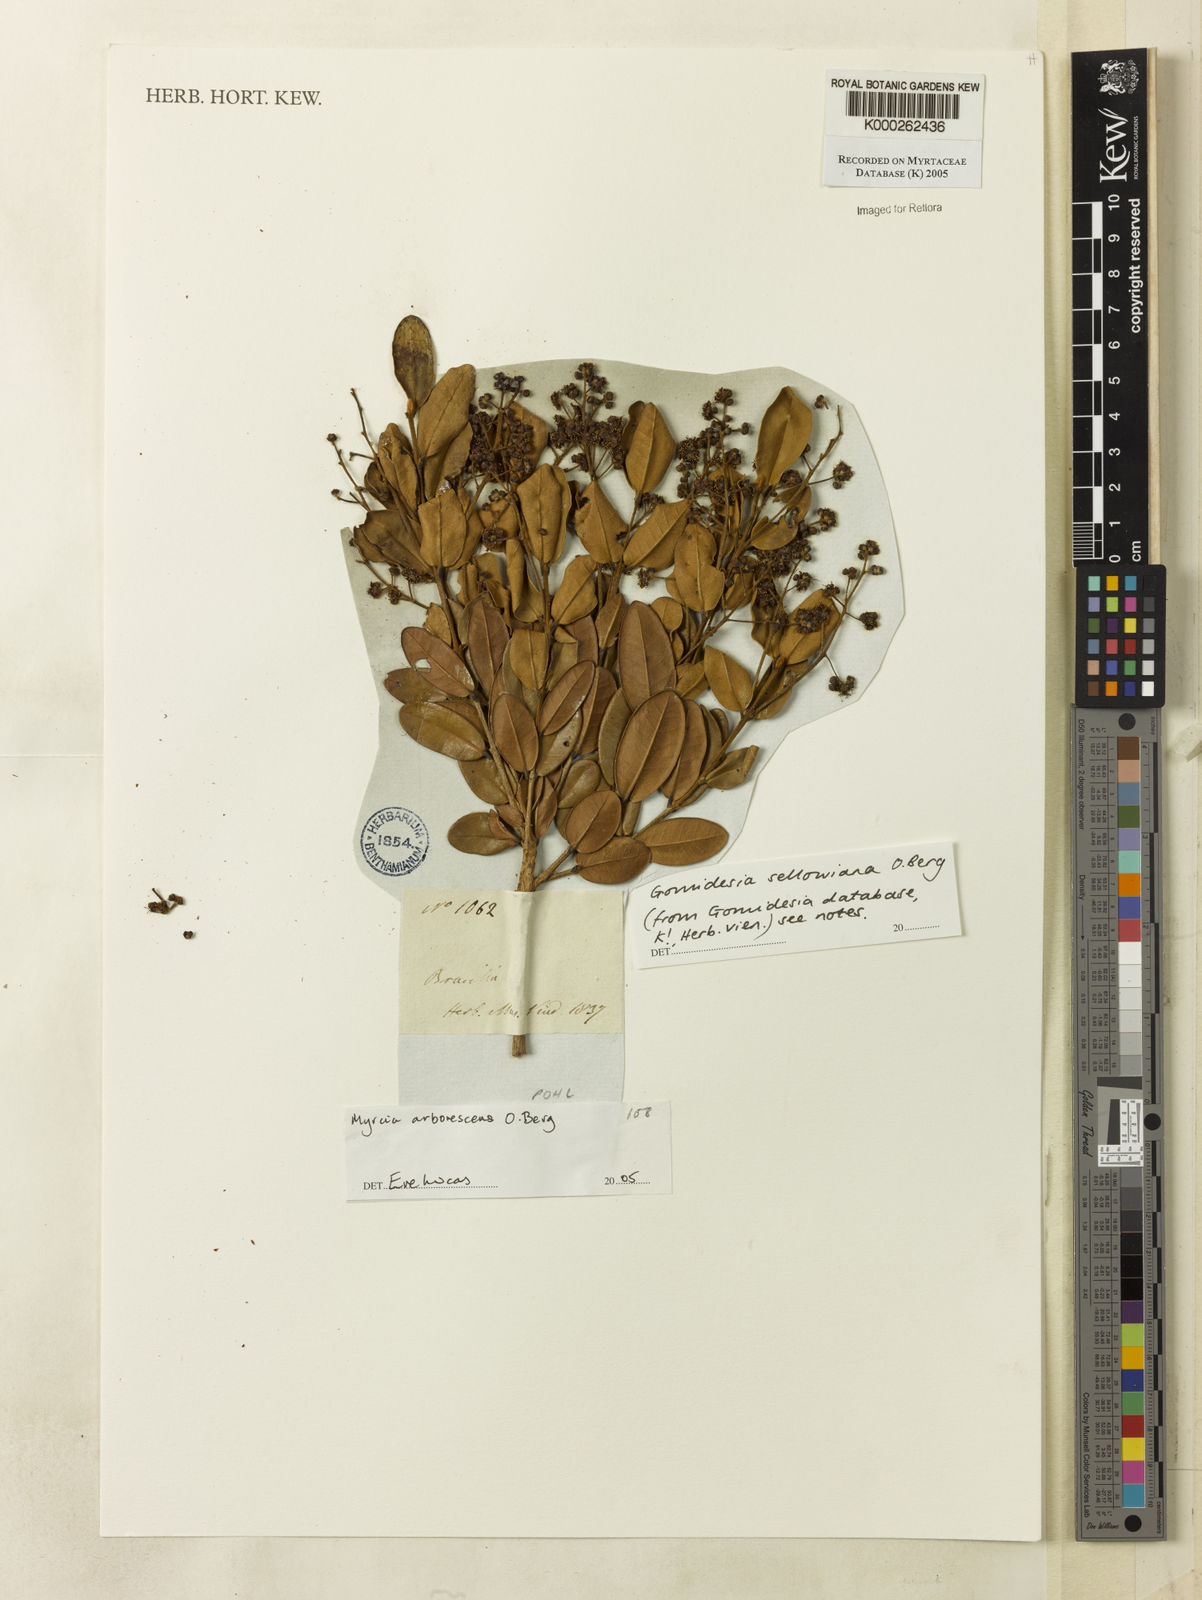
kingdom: Plantae
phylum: Tracheophyta
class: Magnoliopsida
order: Myrtales
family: Myrtaceae
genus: Myrcia
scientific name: Myrcia hartwegiana
